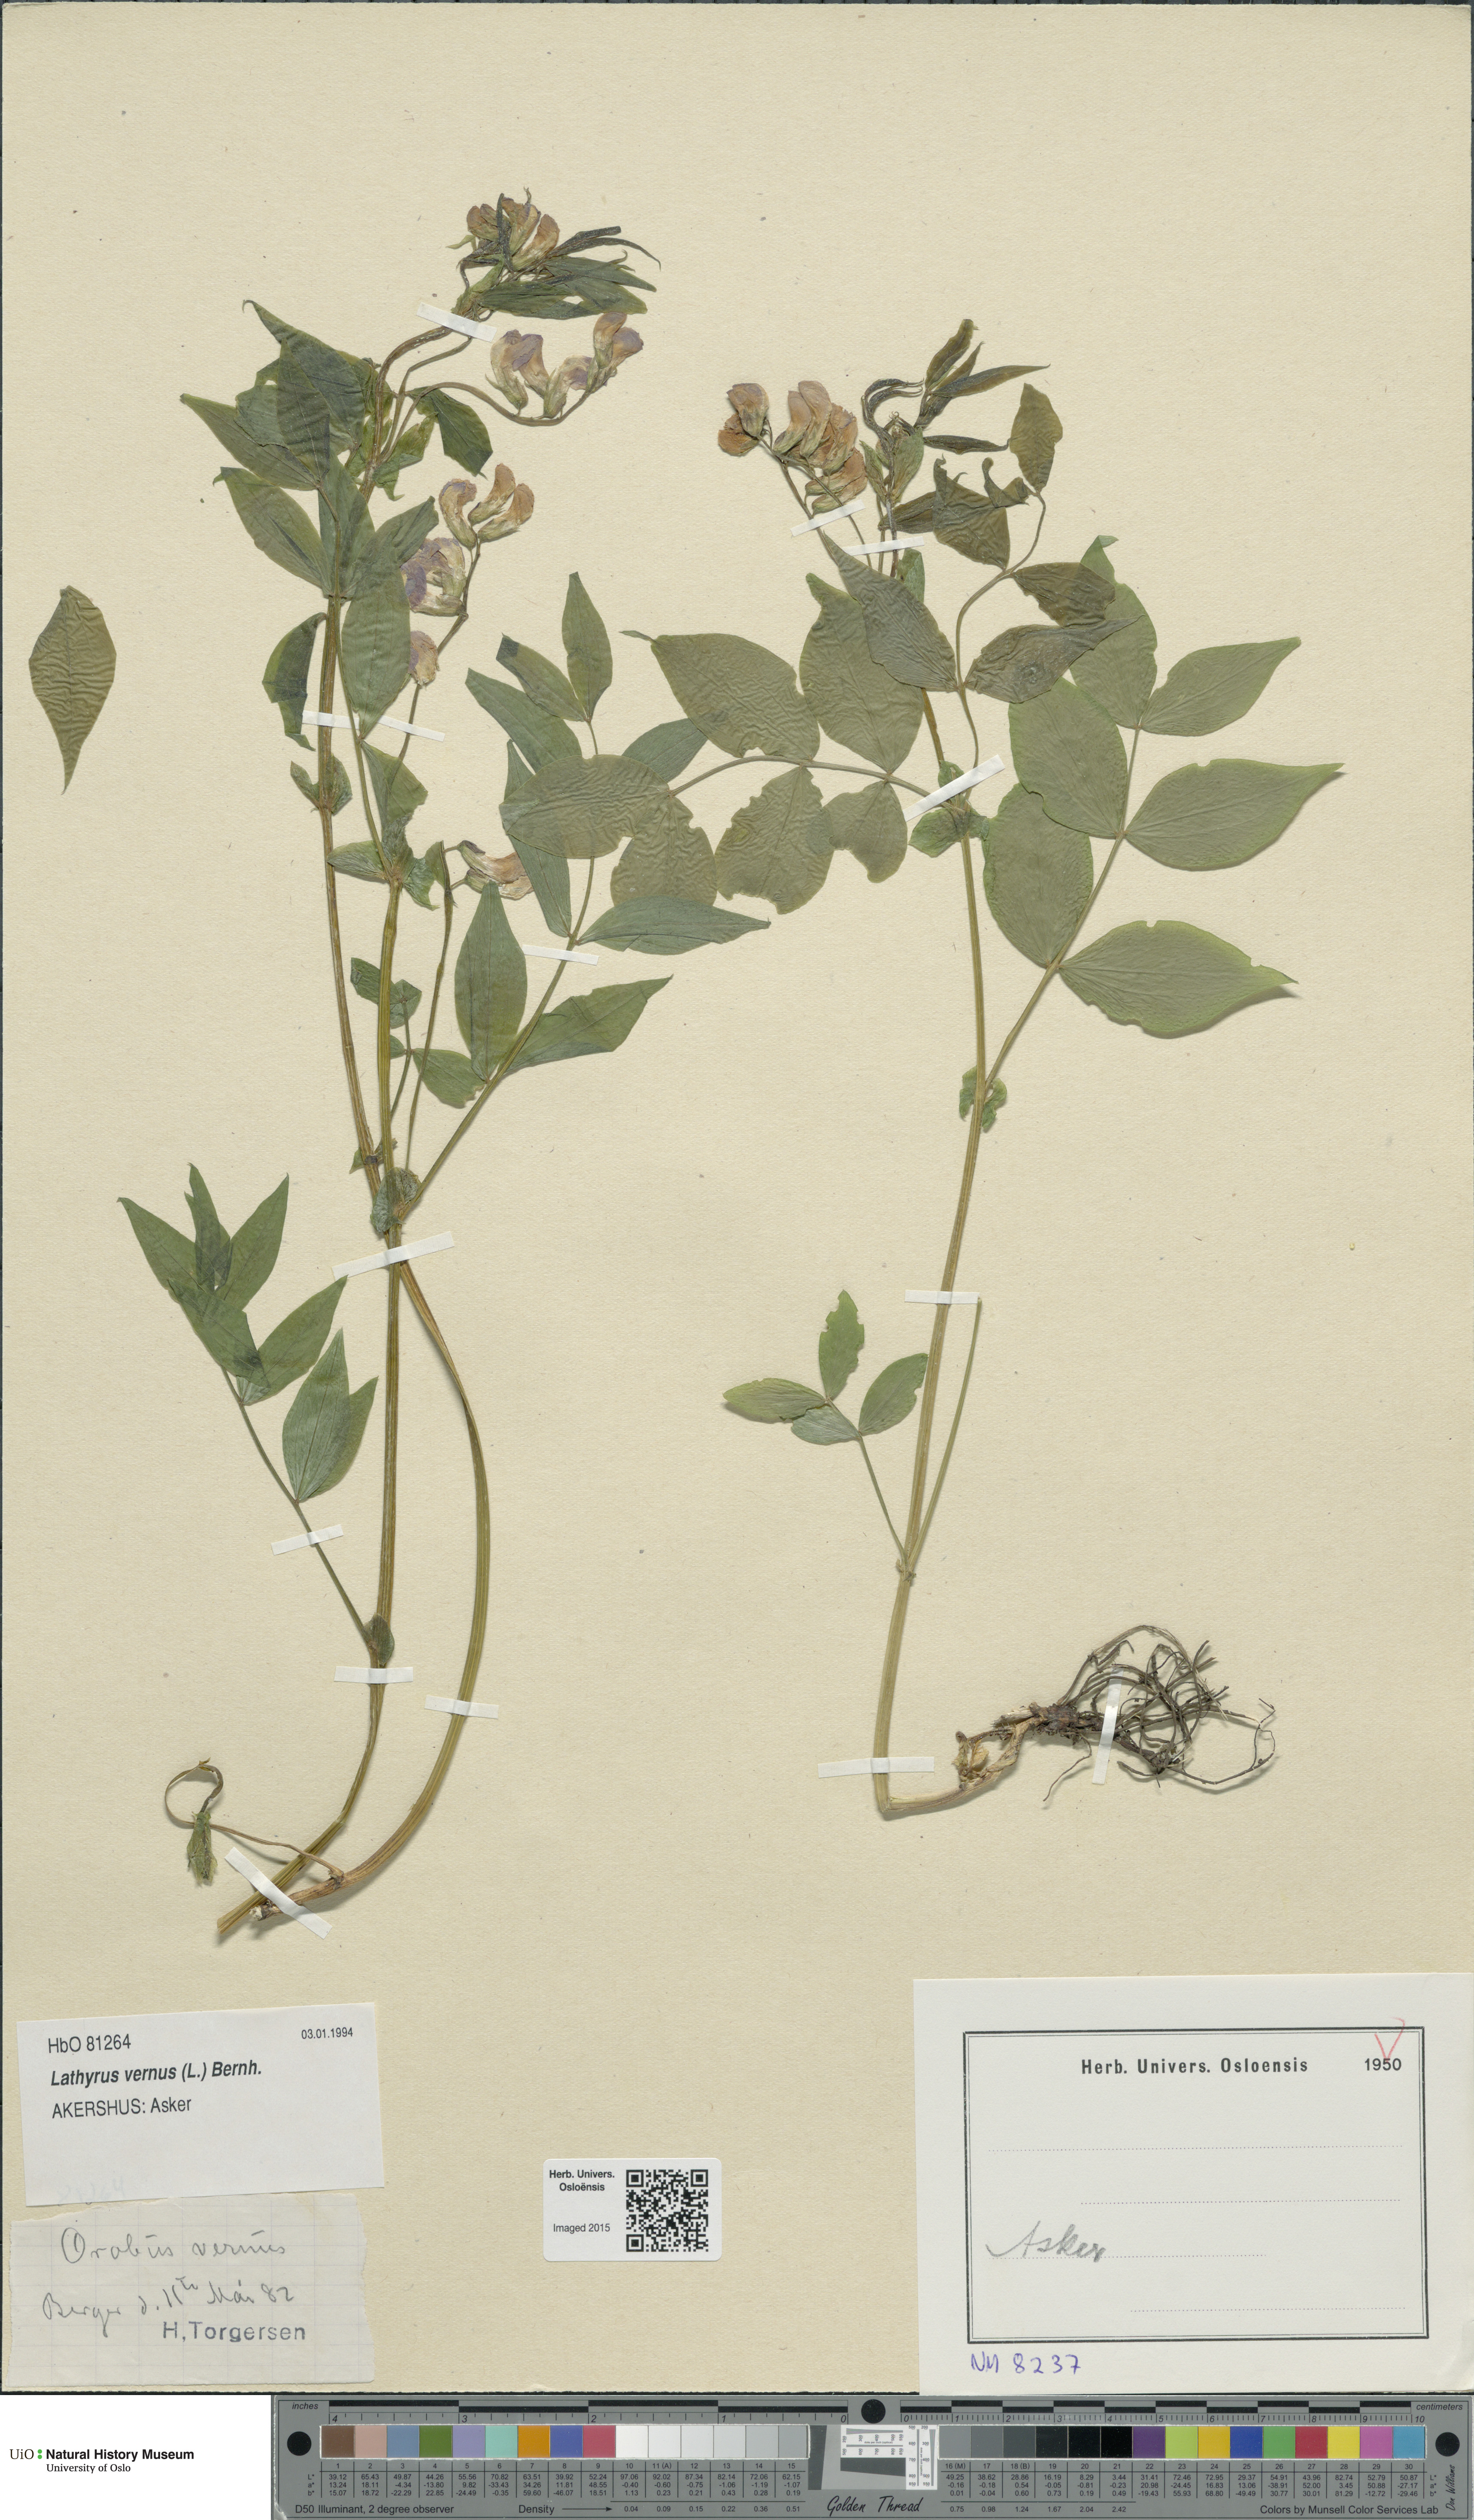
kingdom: Plantae
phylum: Tracheophyta
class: Magnoliopsida
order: Fabales
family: Fabaceae
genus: Lathyrus
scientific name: Lathyrus vernus
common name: Spring pea
